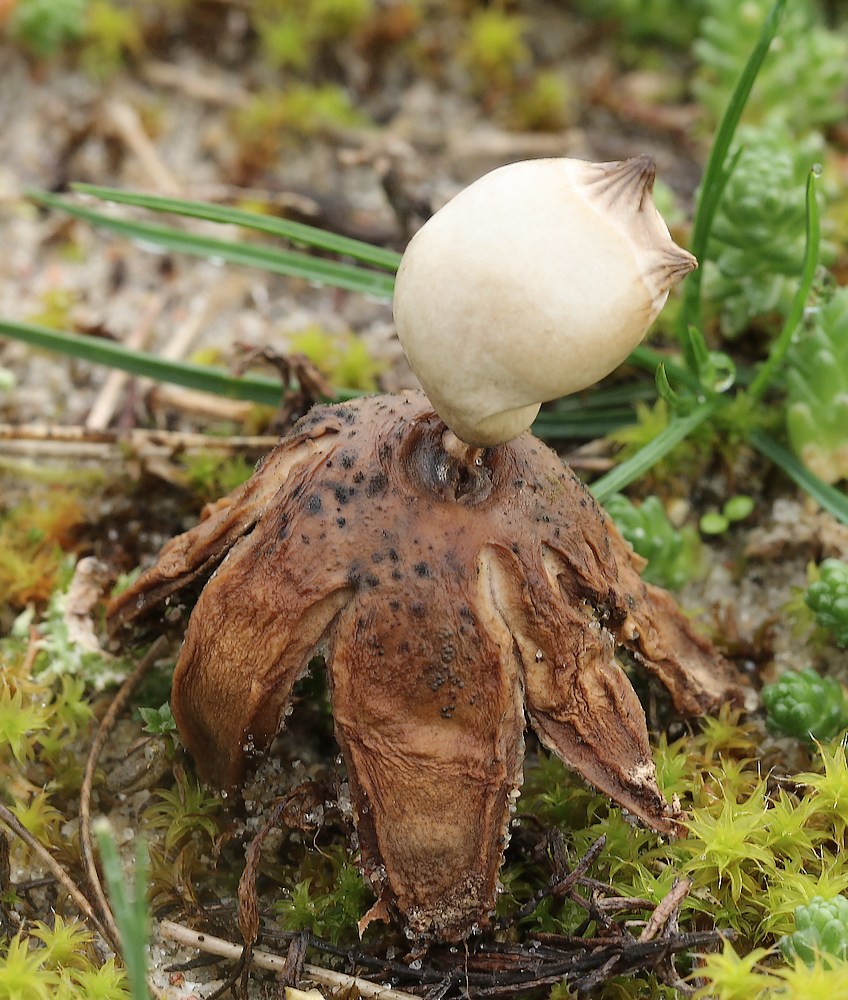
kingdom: Fungi
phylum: Basidiomycota
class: Agaricomycetes
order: Geastrales
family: Geastraceae
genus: Geastrum
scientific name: Geastrum striatum
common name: dværg-stjernebold
